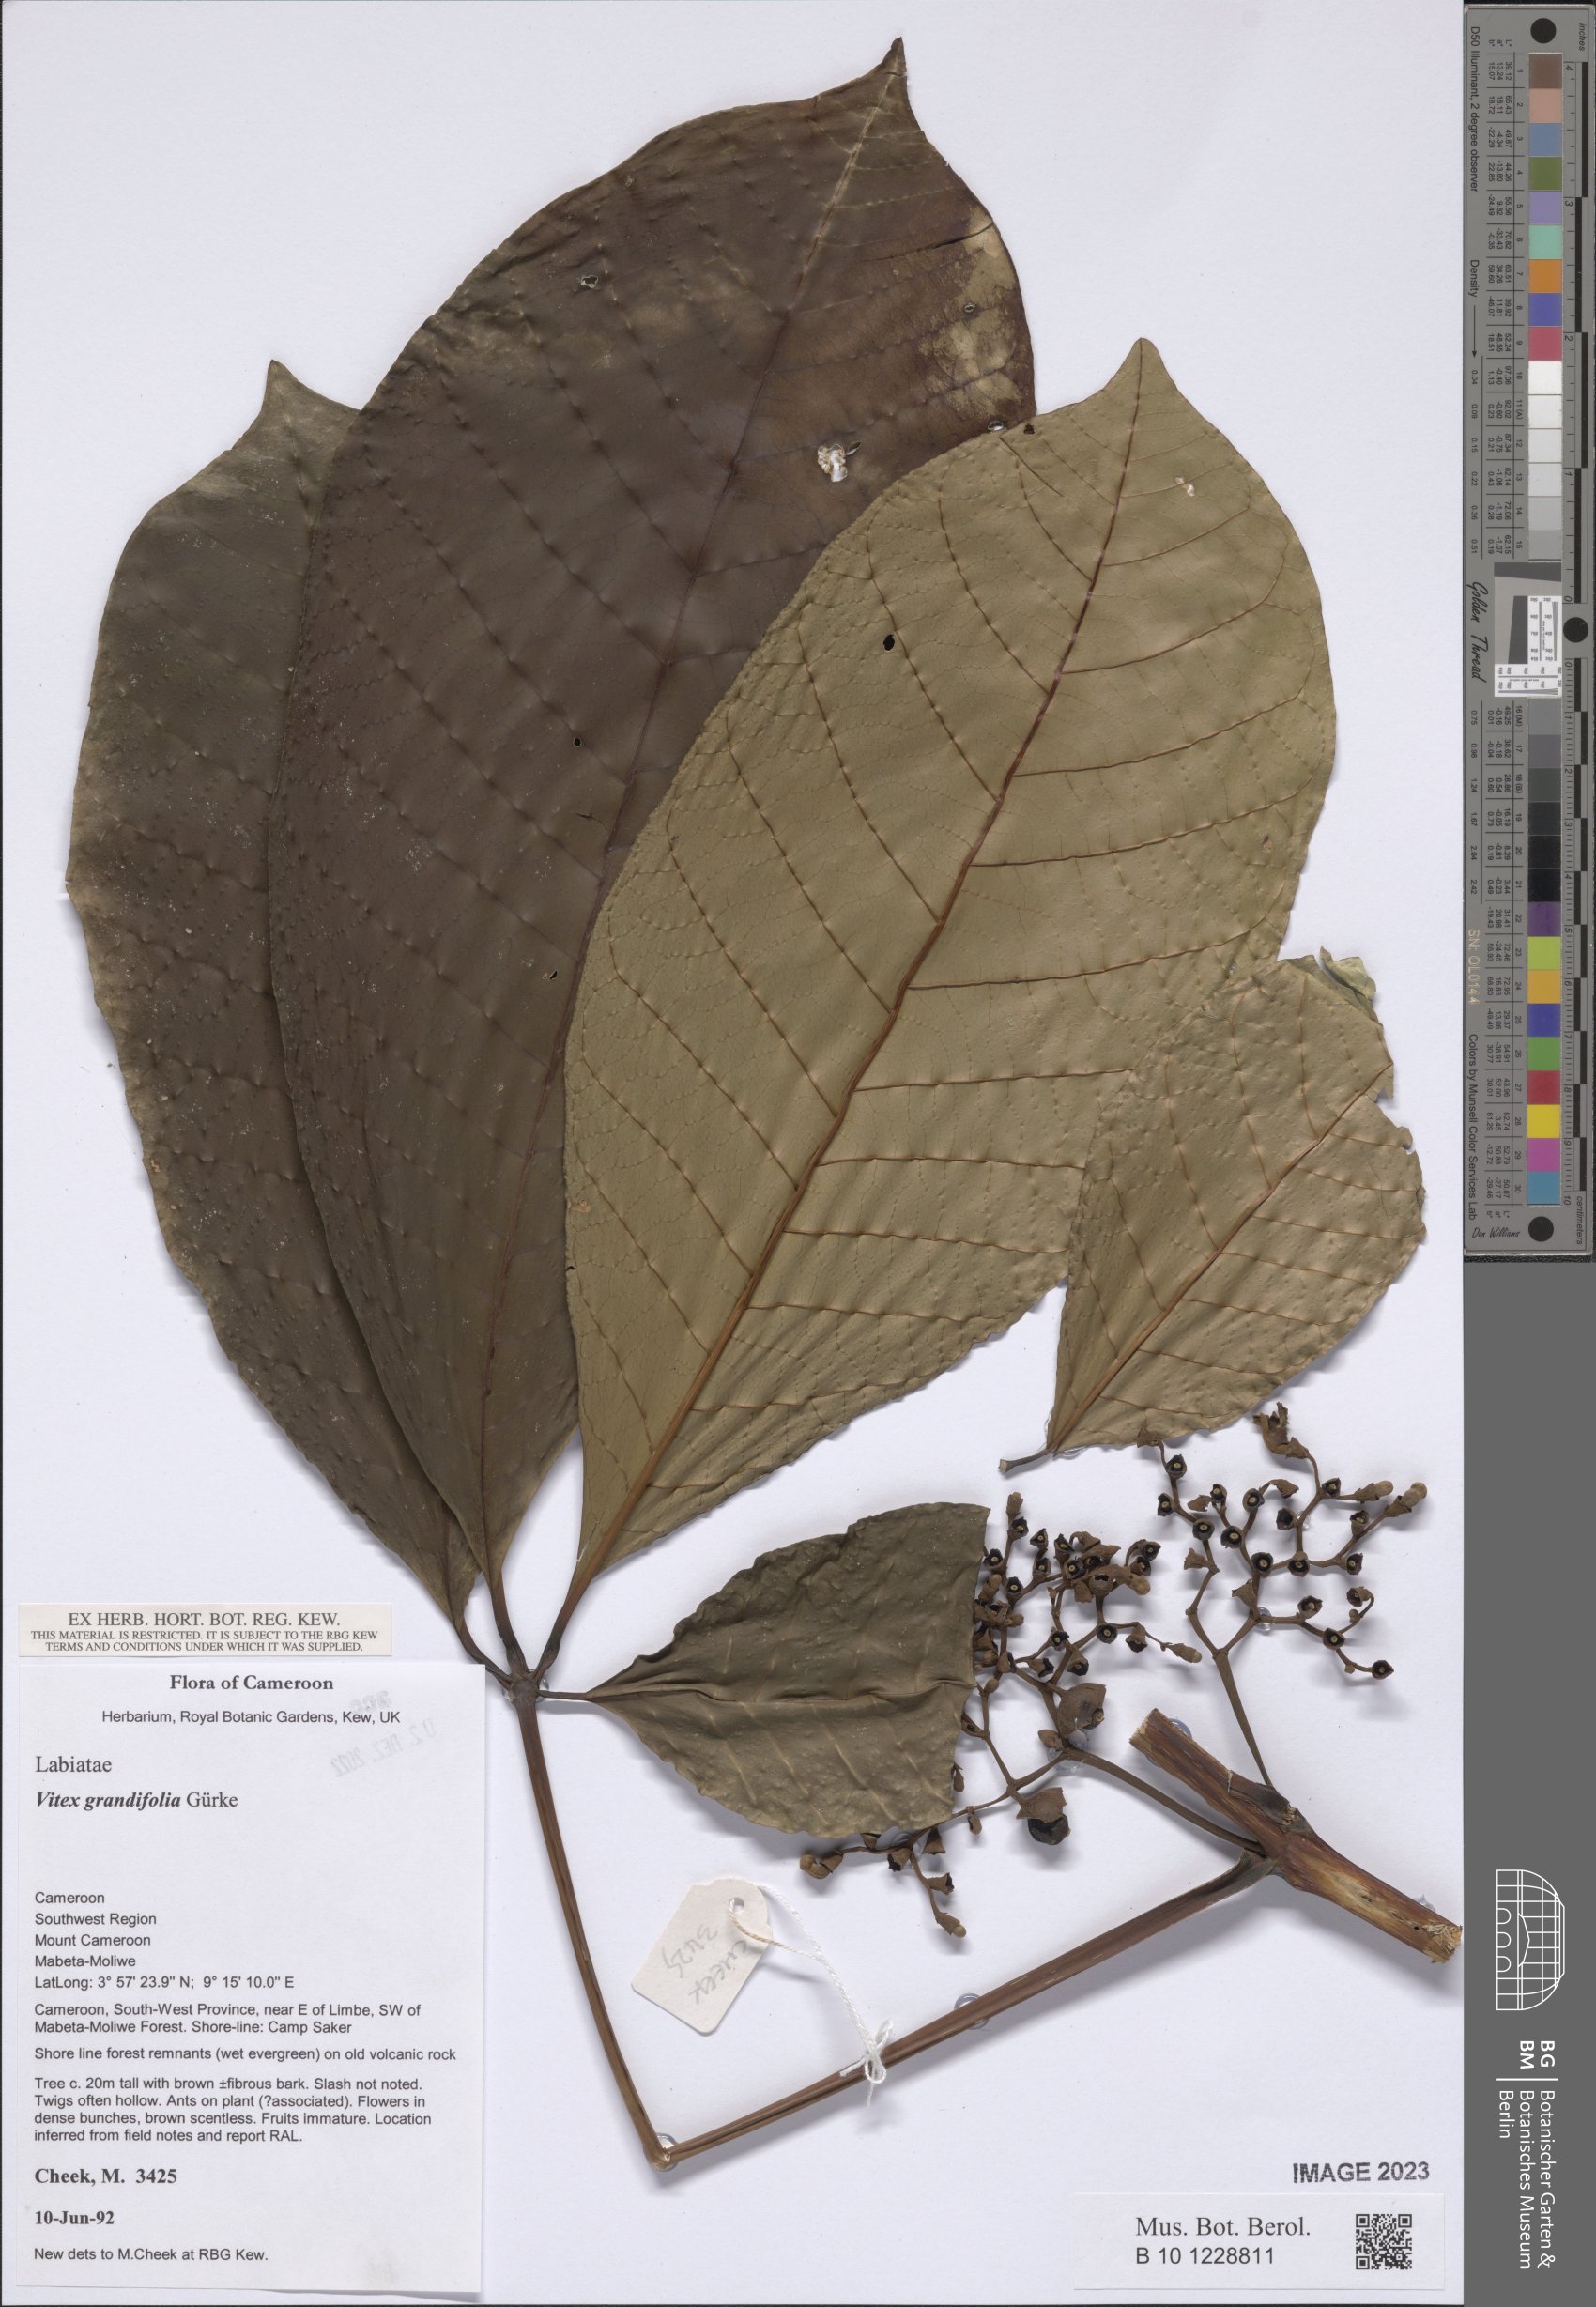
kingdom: Plantae
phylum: Tracheophyta
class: Magnoliopsida
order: Lamiales
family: Lamiaceae
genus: Vitex
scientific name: Vitex grandifolia
